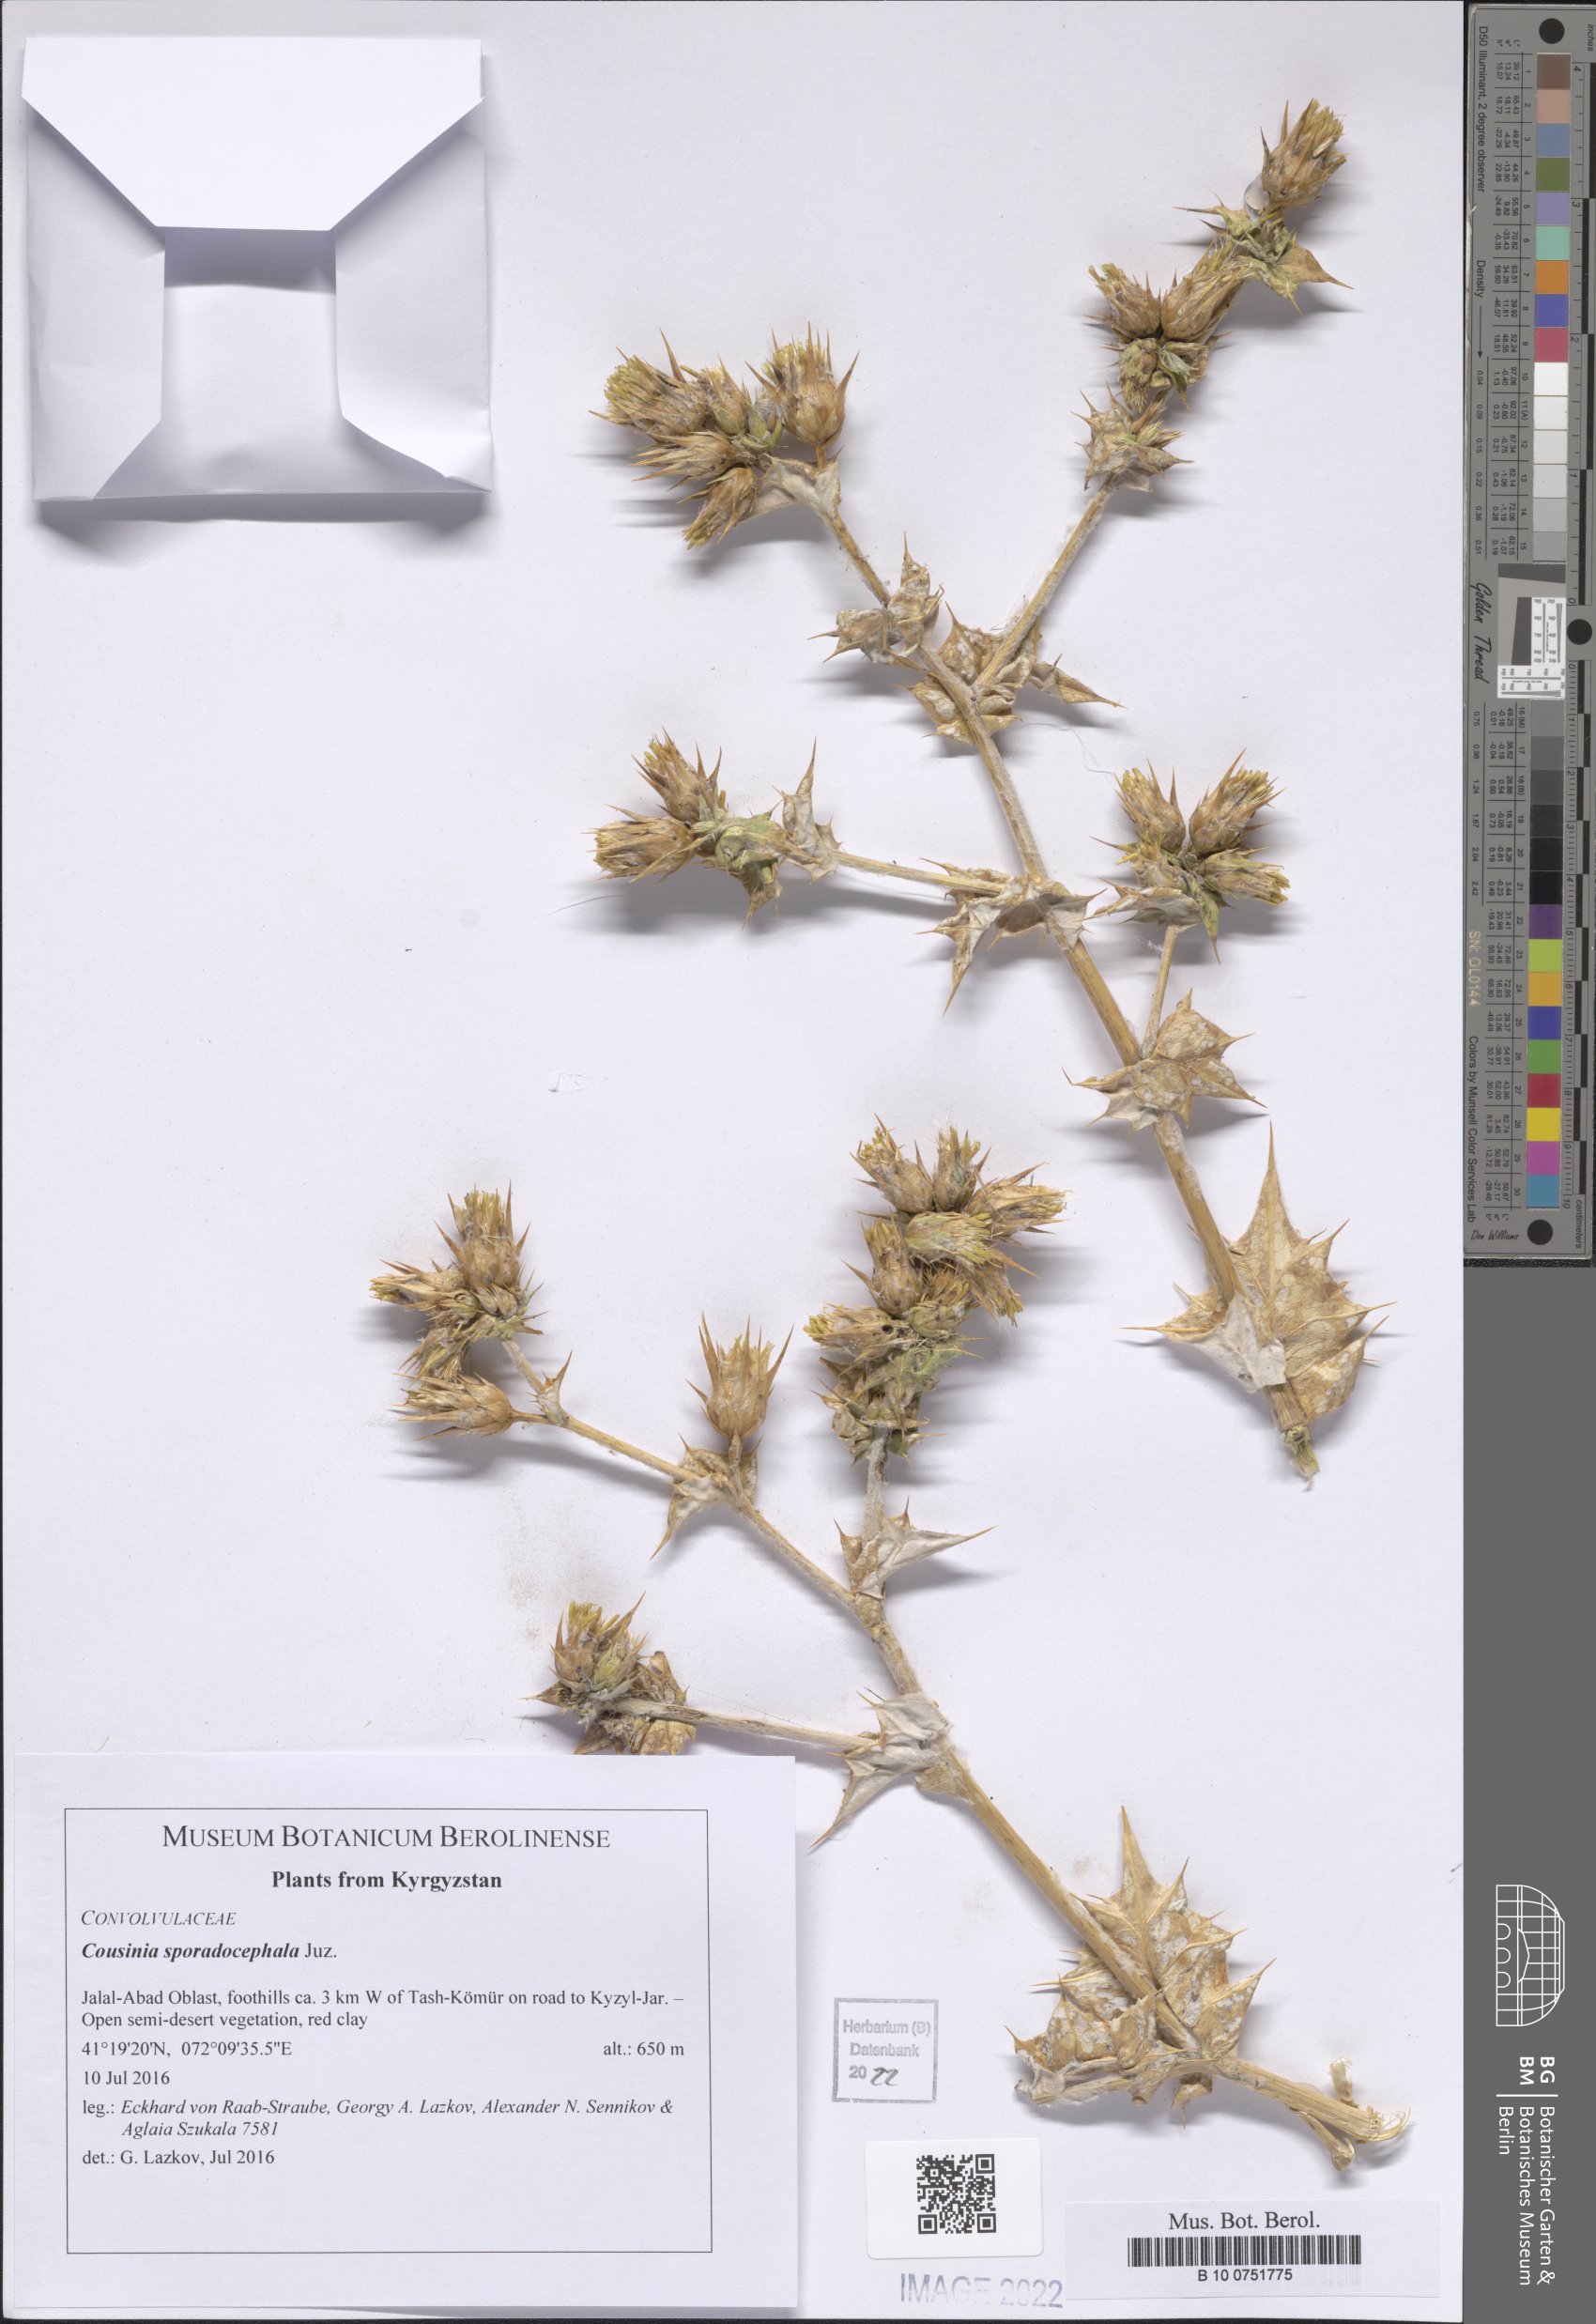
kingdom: Plantae
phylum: Tracheophyta
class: Magnoliopsida
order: Asterales
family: Asteraceae
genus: Cousinia
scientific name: Cousinia sporadocephala
